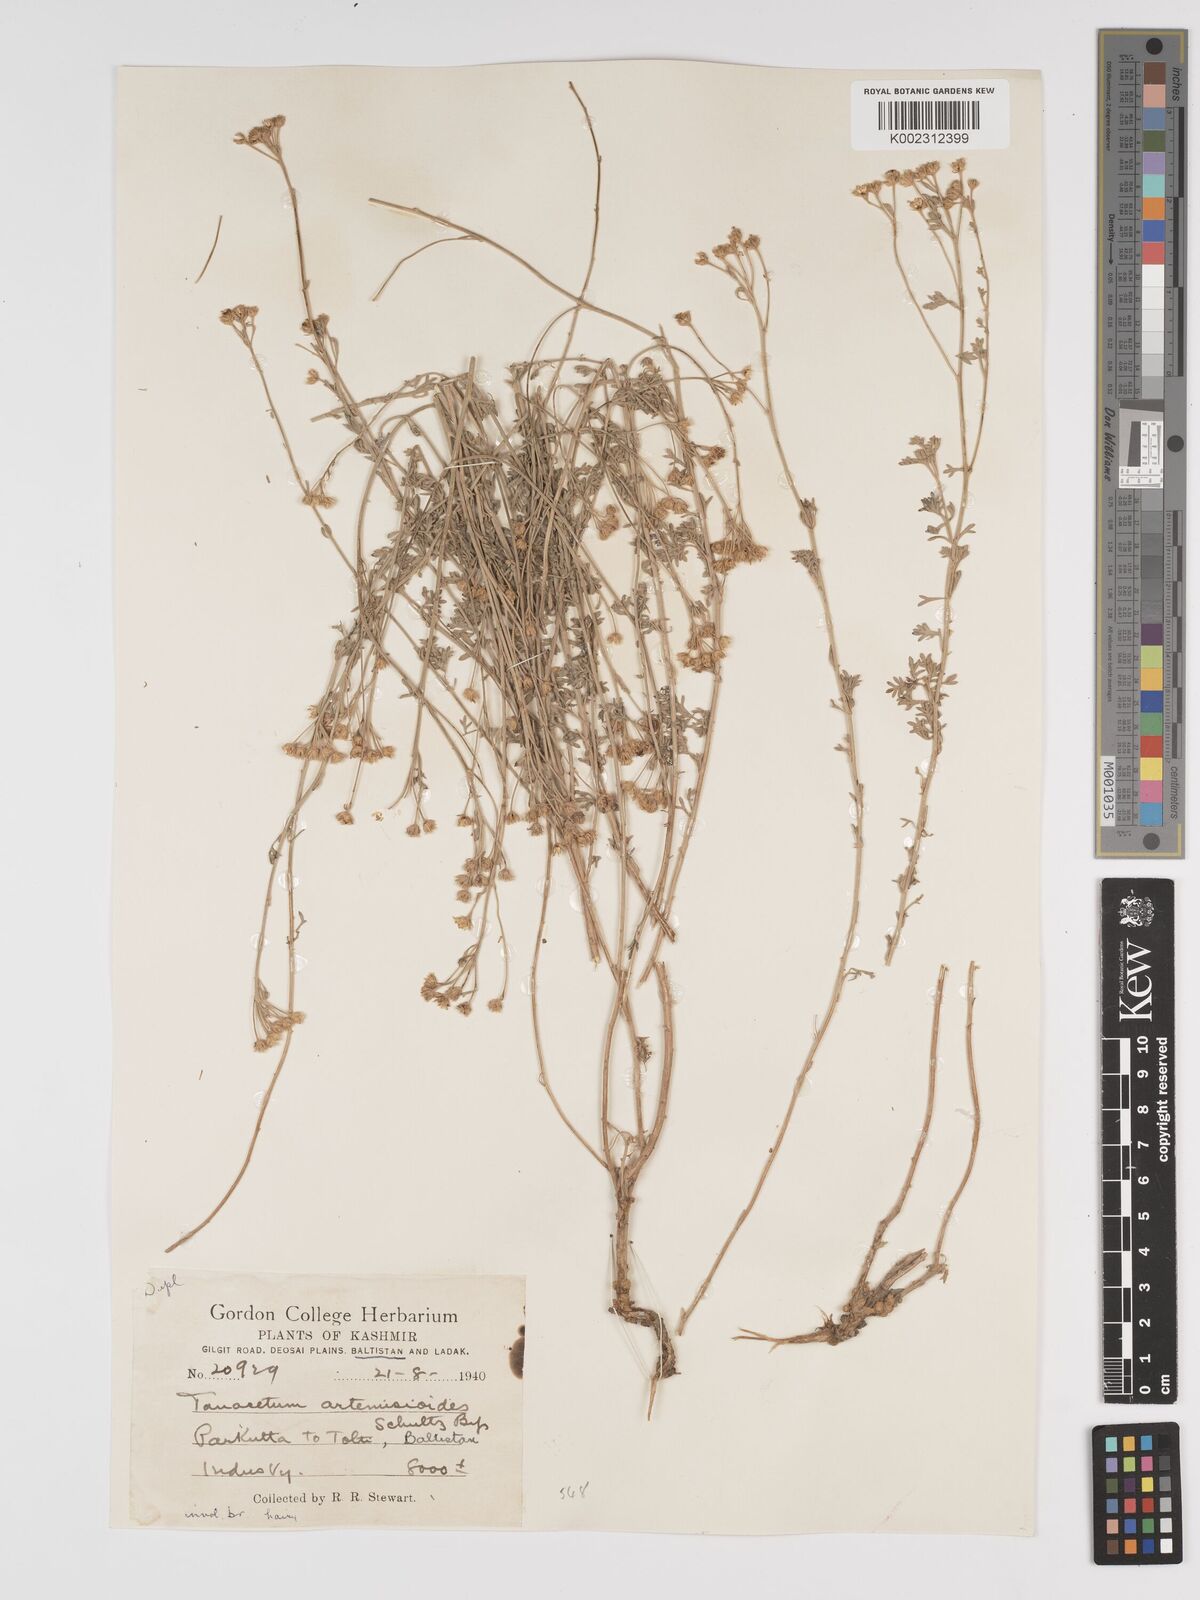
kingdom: Plantae
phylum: Tracheophyta
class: Magnoliopsida
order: Asterales
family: Asteraceae
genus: Tanacetum
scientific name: Tanacetum artemisioides
